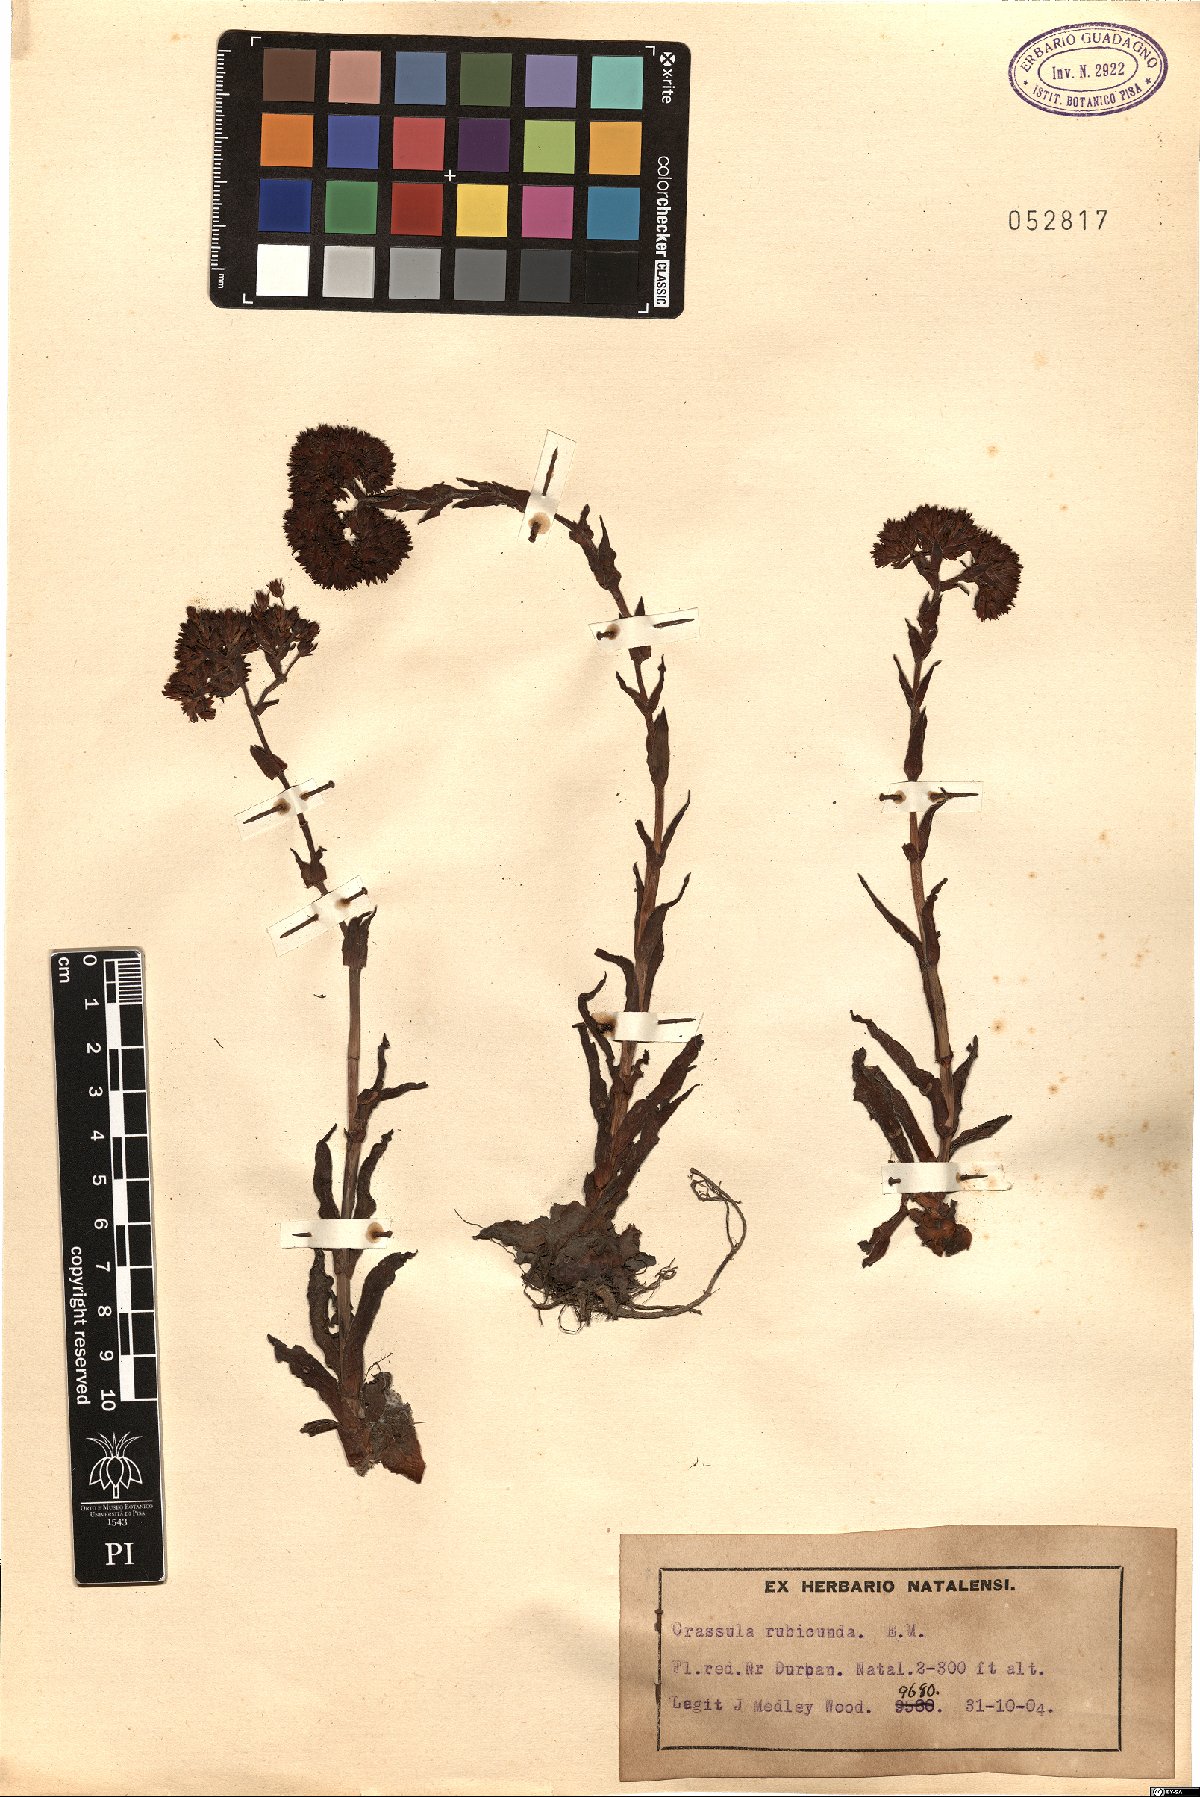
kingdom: Plantae
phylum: Tracheophyta
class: Magnoliopsida
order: Saxifragales
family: Crassulaceae
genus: Crassula
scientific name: Crassula alba
